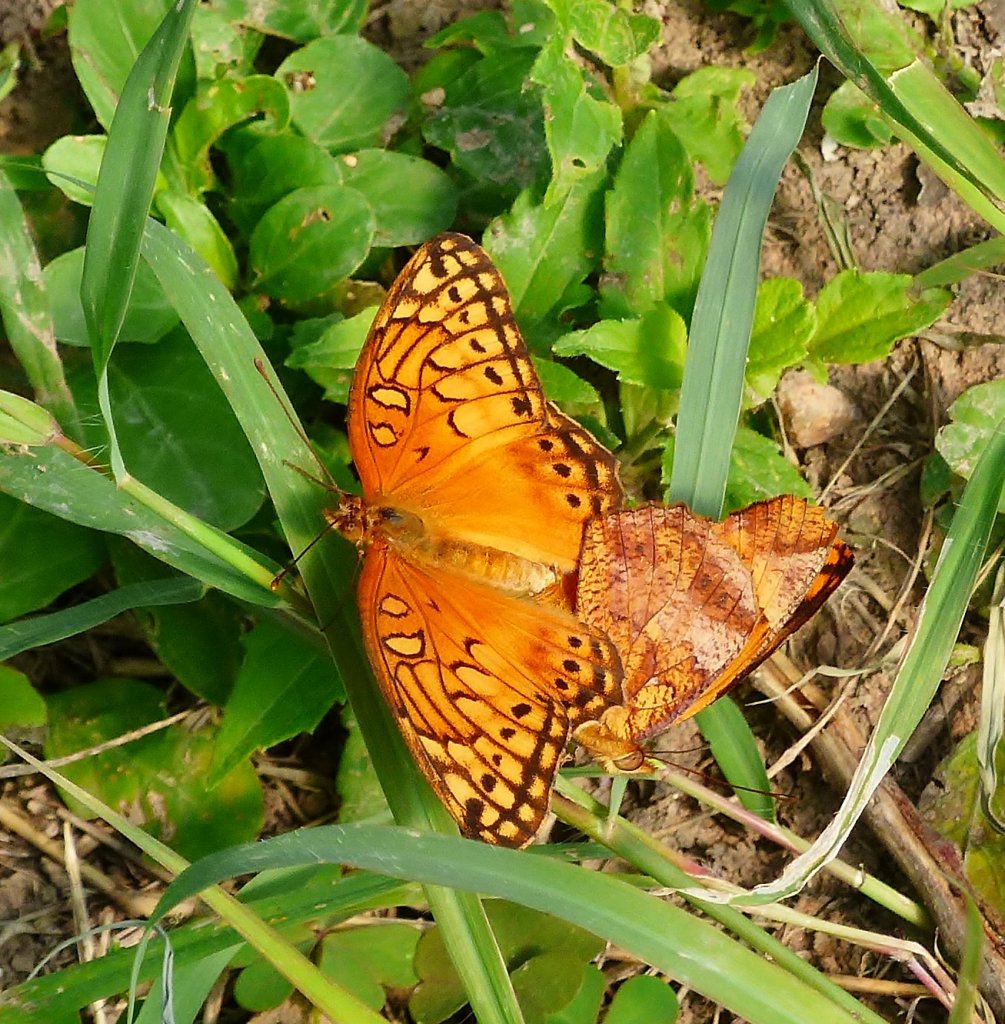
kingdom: Animalia
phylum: Arthropoda
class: Insecta
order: Lepidoptera
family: Nymphalidae
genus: Euptoieta
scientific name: Euptoieta hegesia
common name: Mexican Fritillary
